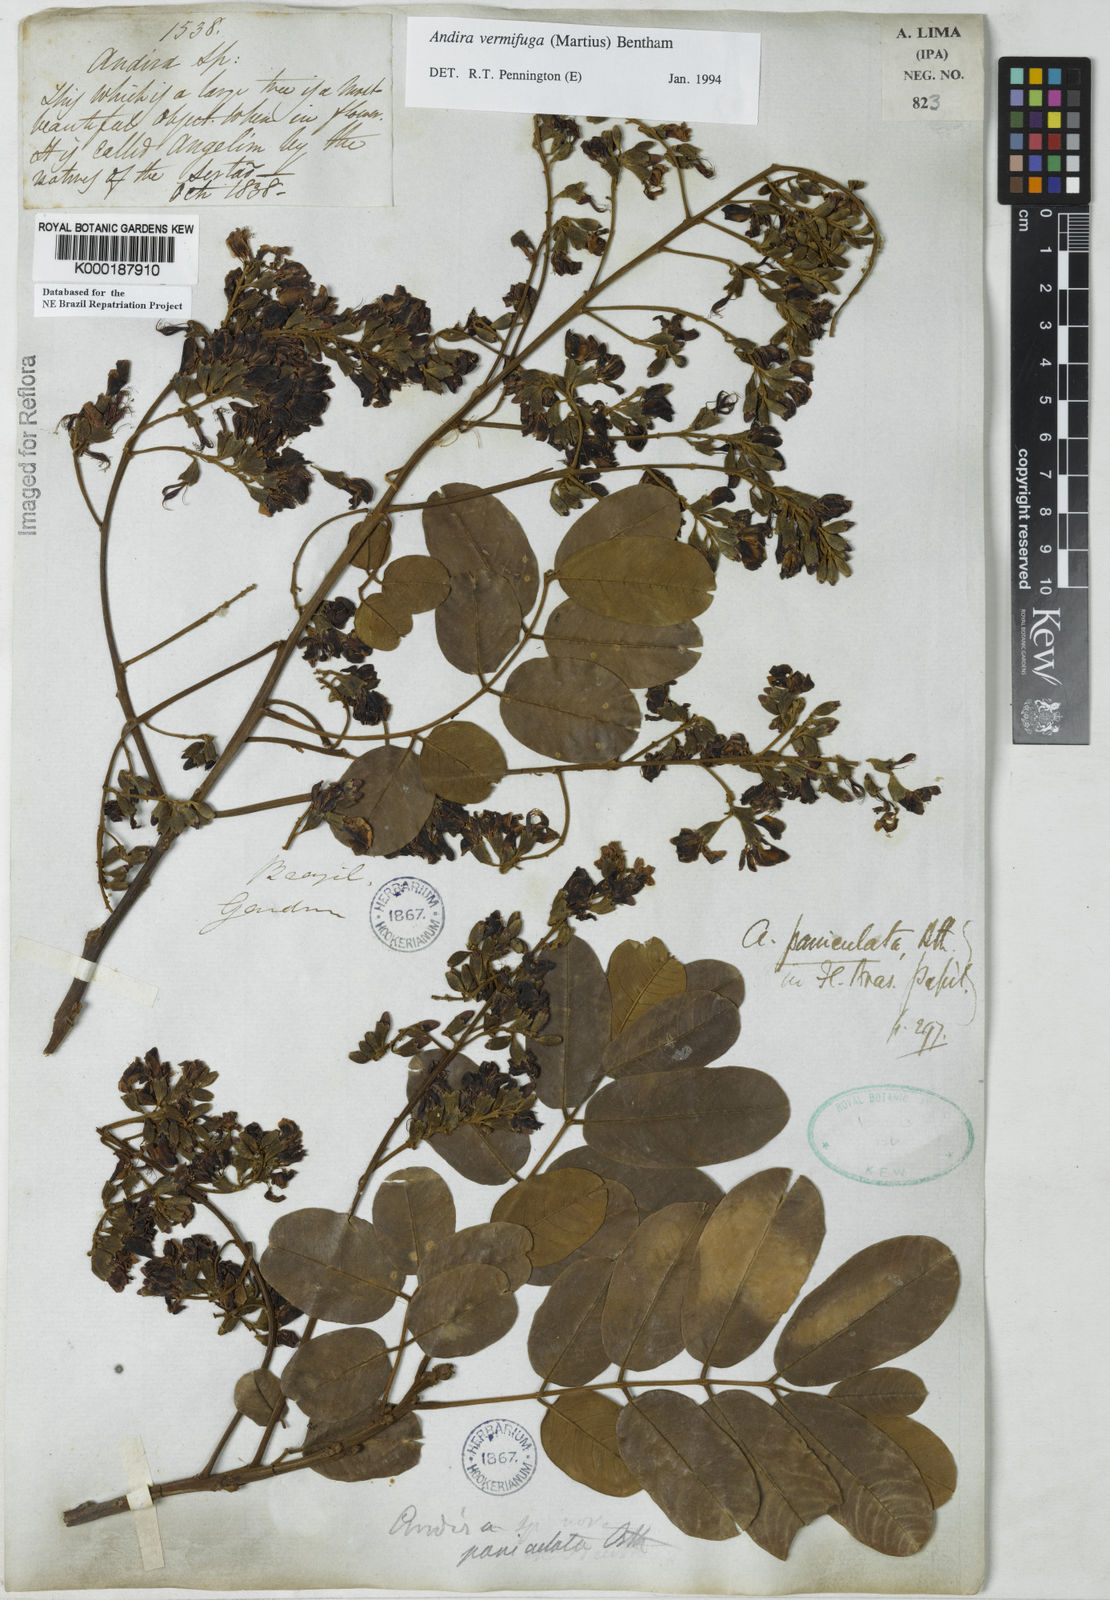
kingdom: Plantae
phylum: Tracheophyta
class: Magnoliopsida
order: Fabales
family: Fabaceae
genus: Andira
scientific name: Andira vermifuga
